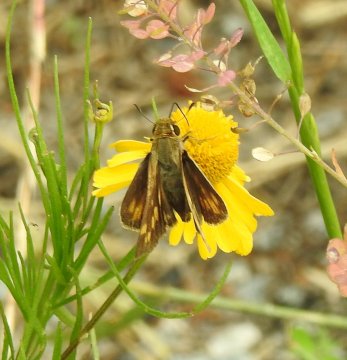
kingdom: Animalia
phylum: Arthropoda
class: Insecta
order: Lepidoptera
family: Hesperiidae
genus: Hylephila
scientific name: Hylephila phyleus
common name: Fiery Skipper
